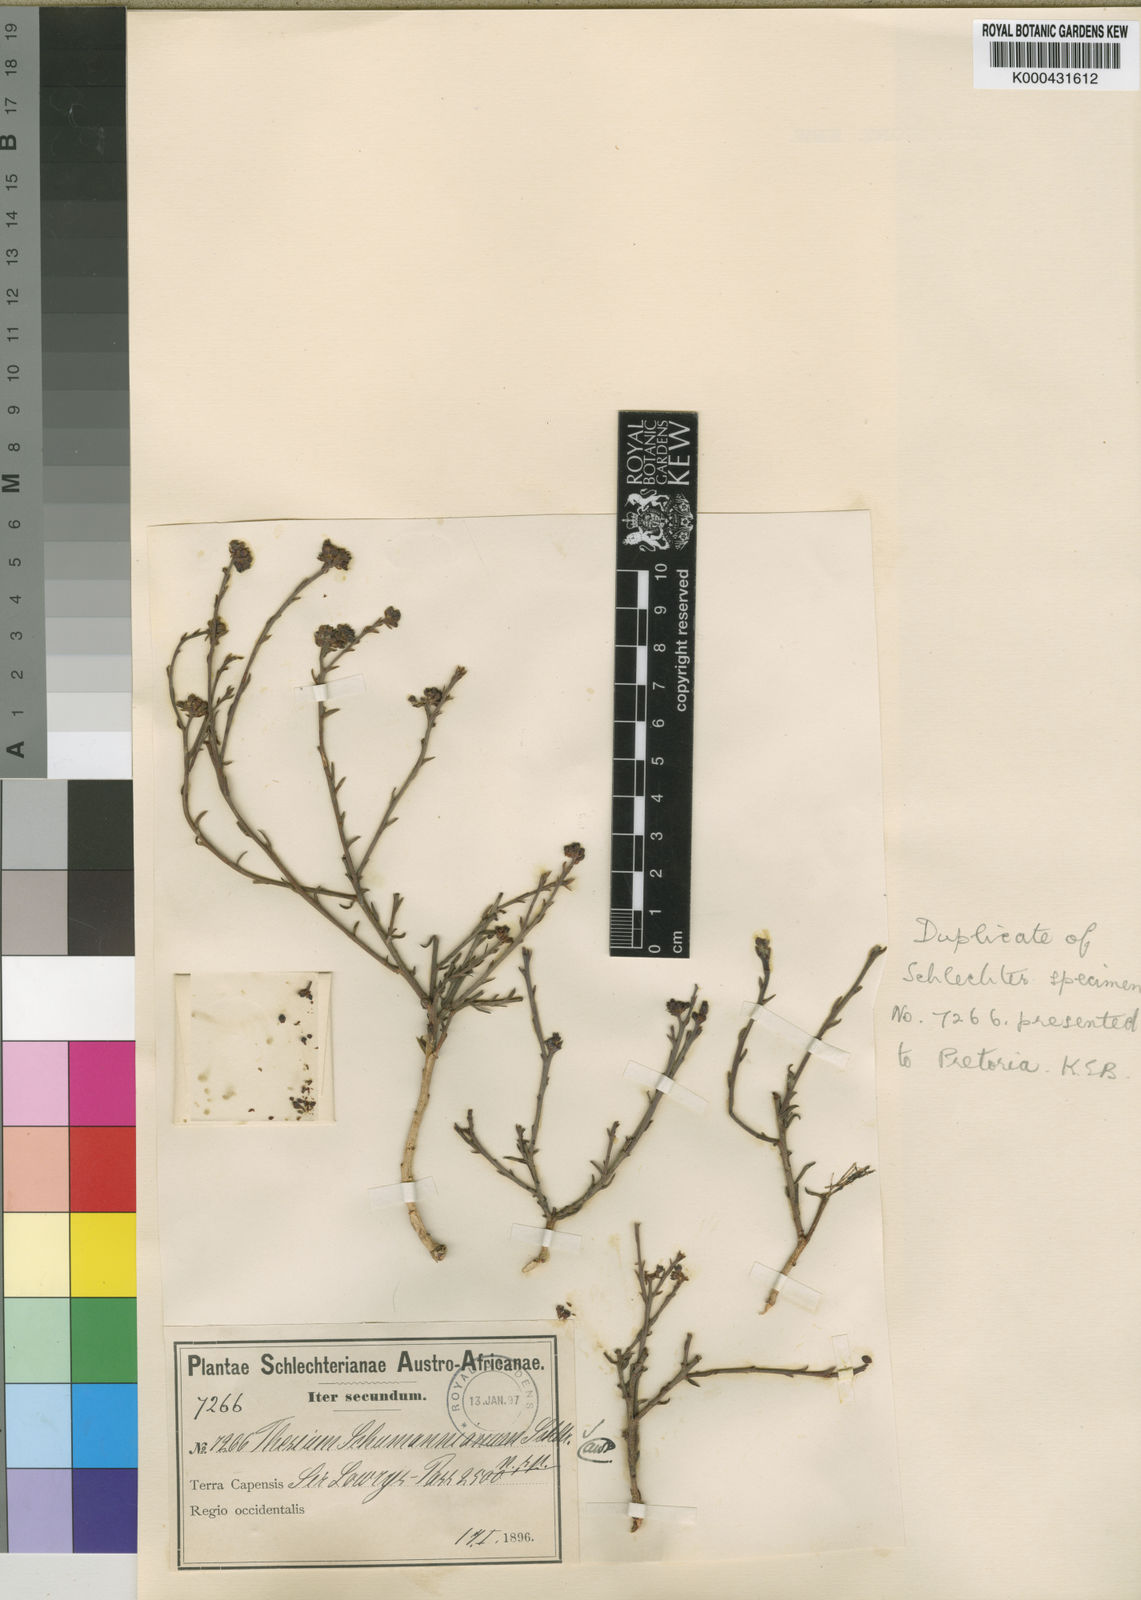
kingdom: Plantae
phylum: Tracheophyta
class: Magnoliopsida
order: Santalales
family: Thesiaceae
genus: Thesium
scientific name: Thesium schumannianum
